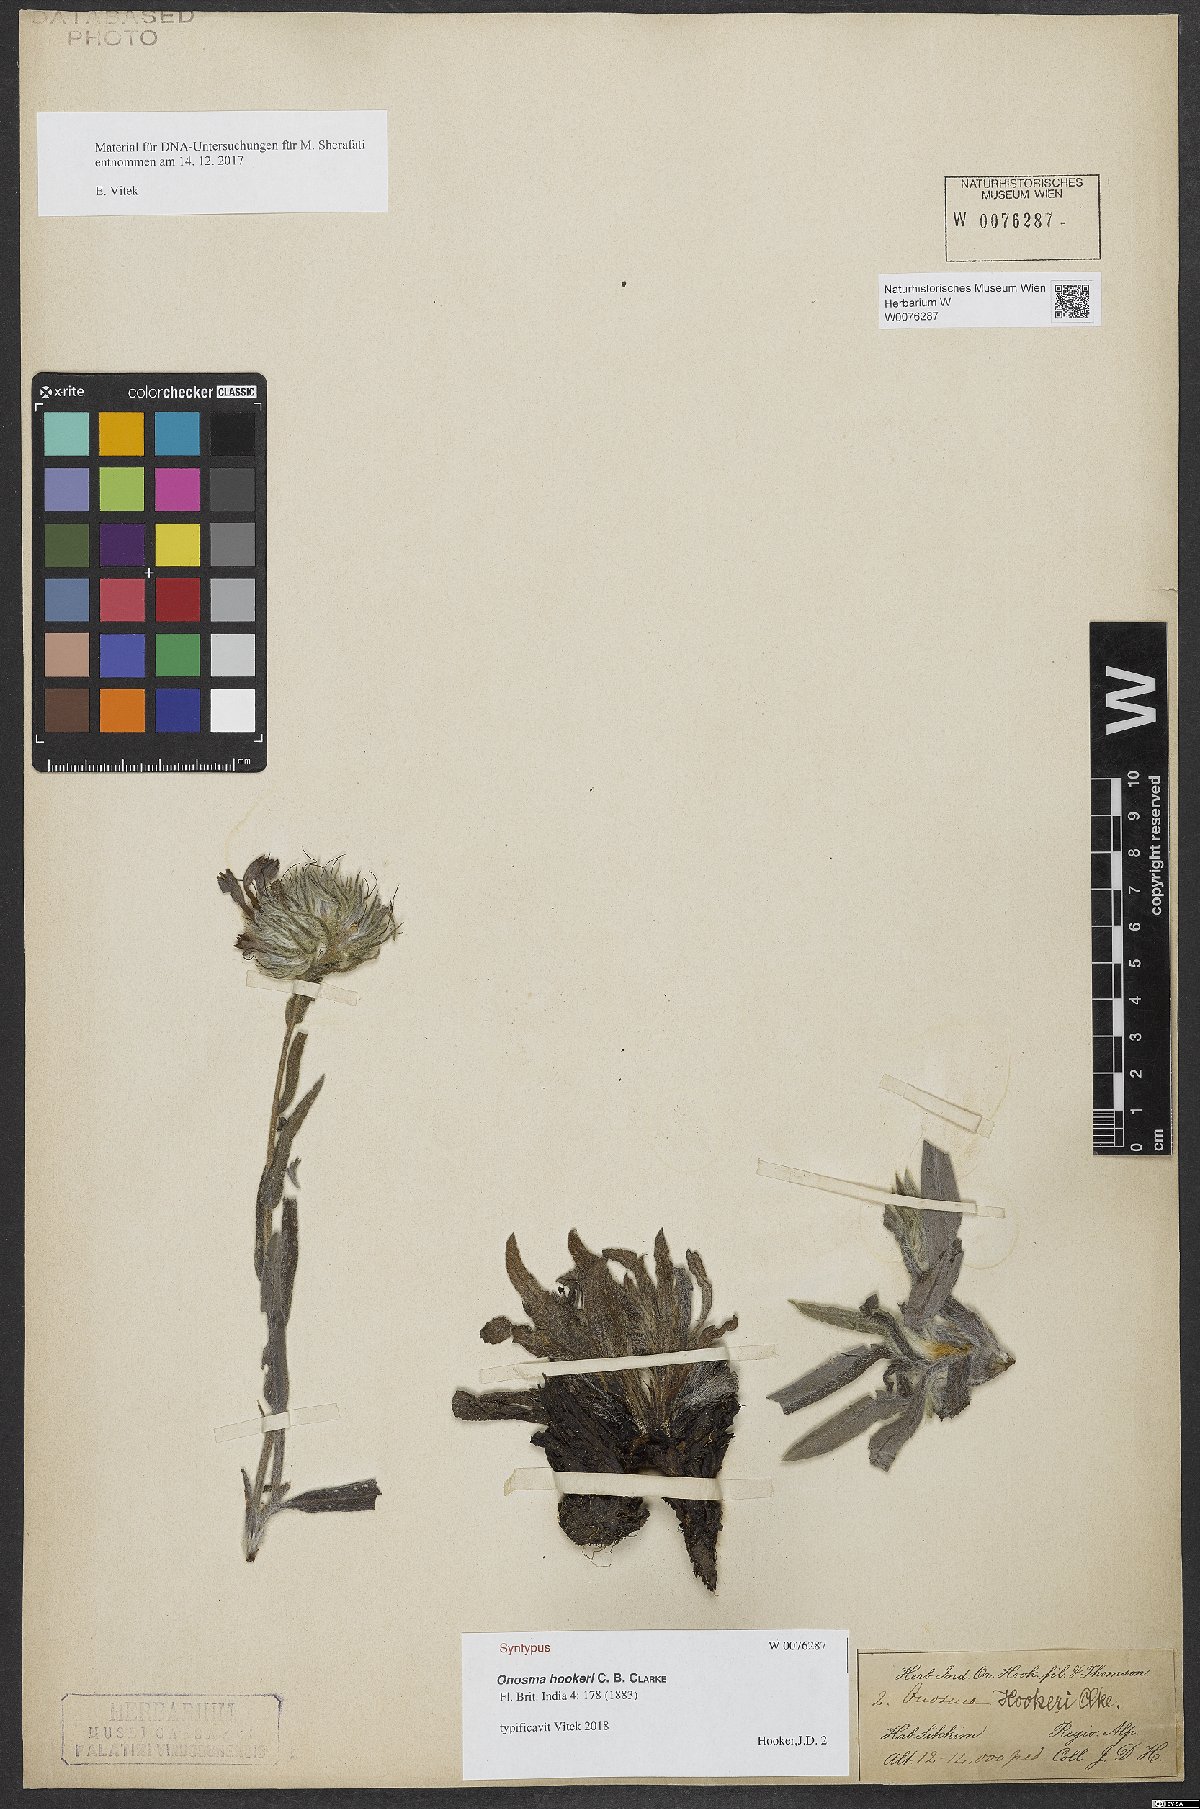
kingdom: Plantae
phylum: Tracheophyta
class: Magnoliopsida
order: Boraginales
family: Boraginaceae
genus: Maharanga
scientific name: Maharanga hookeri
